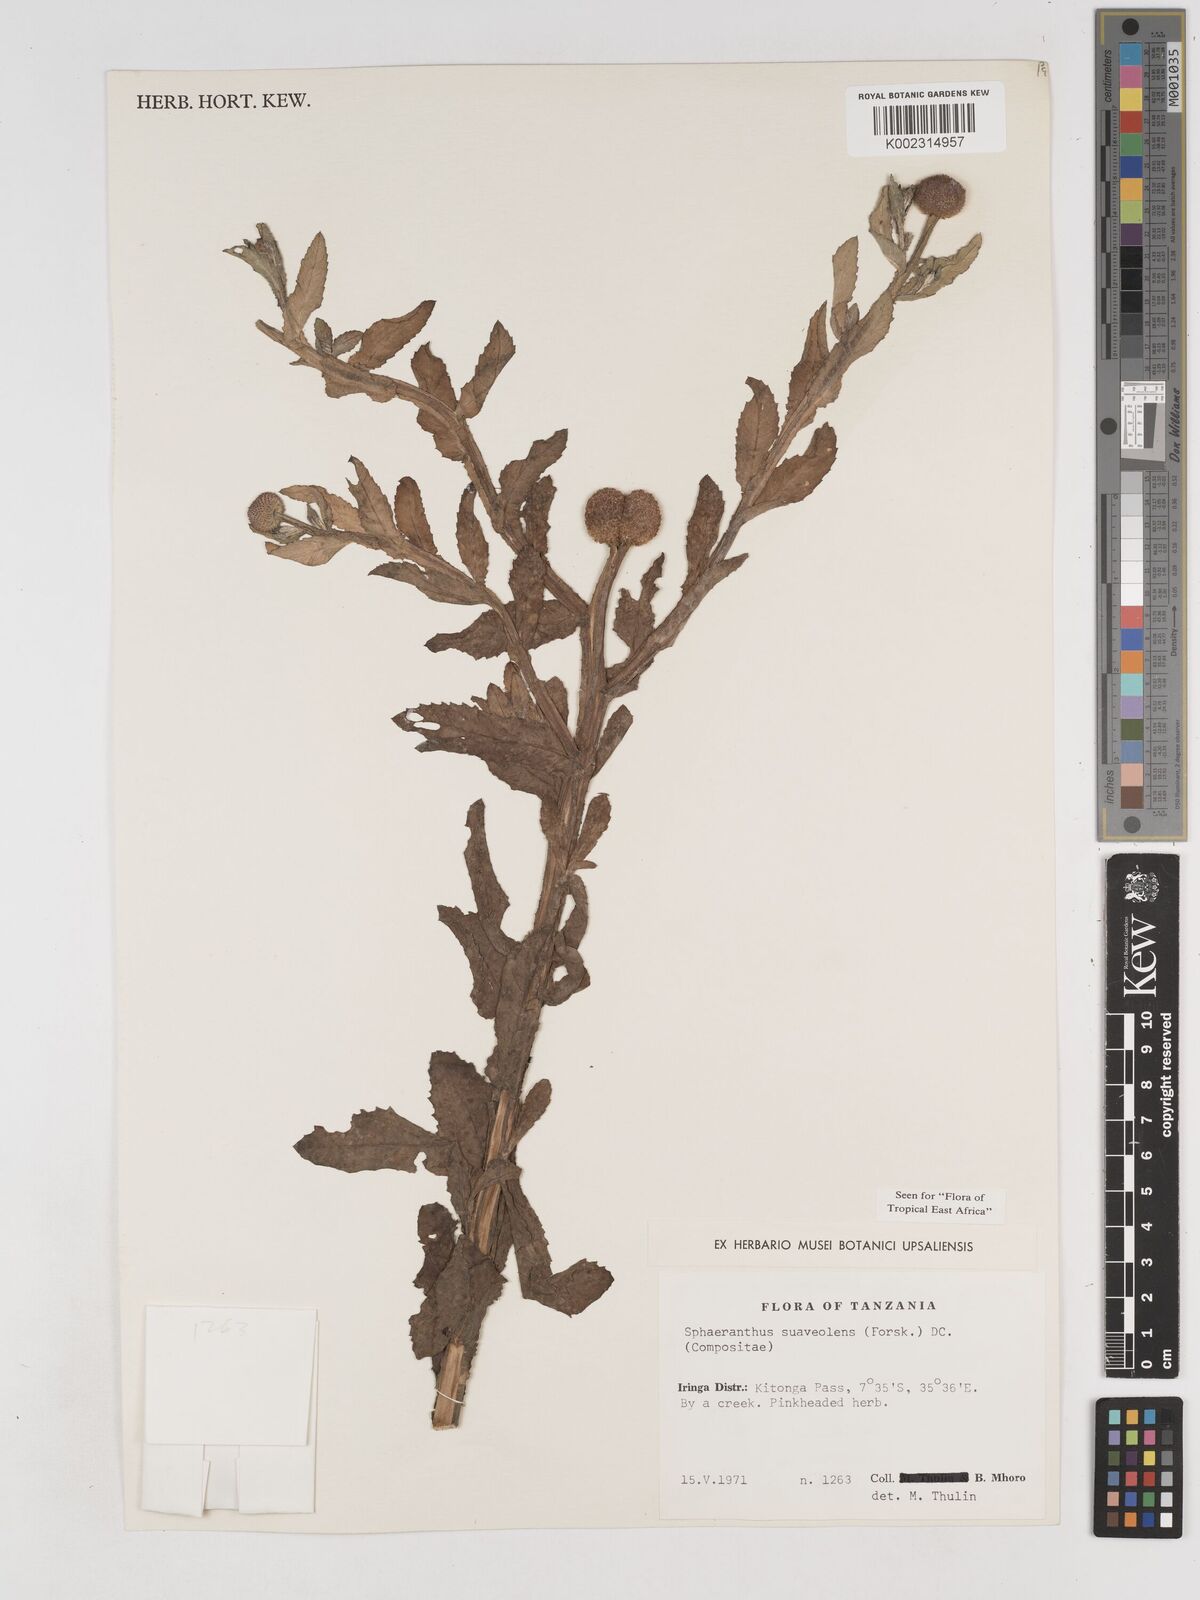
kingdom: Plantae
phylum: Tracheophyta
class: Magnoliopsida
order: Asterales
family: Asteraceae
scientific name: Asteraceae
